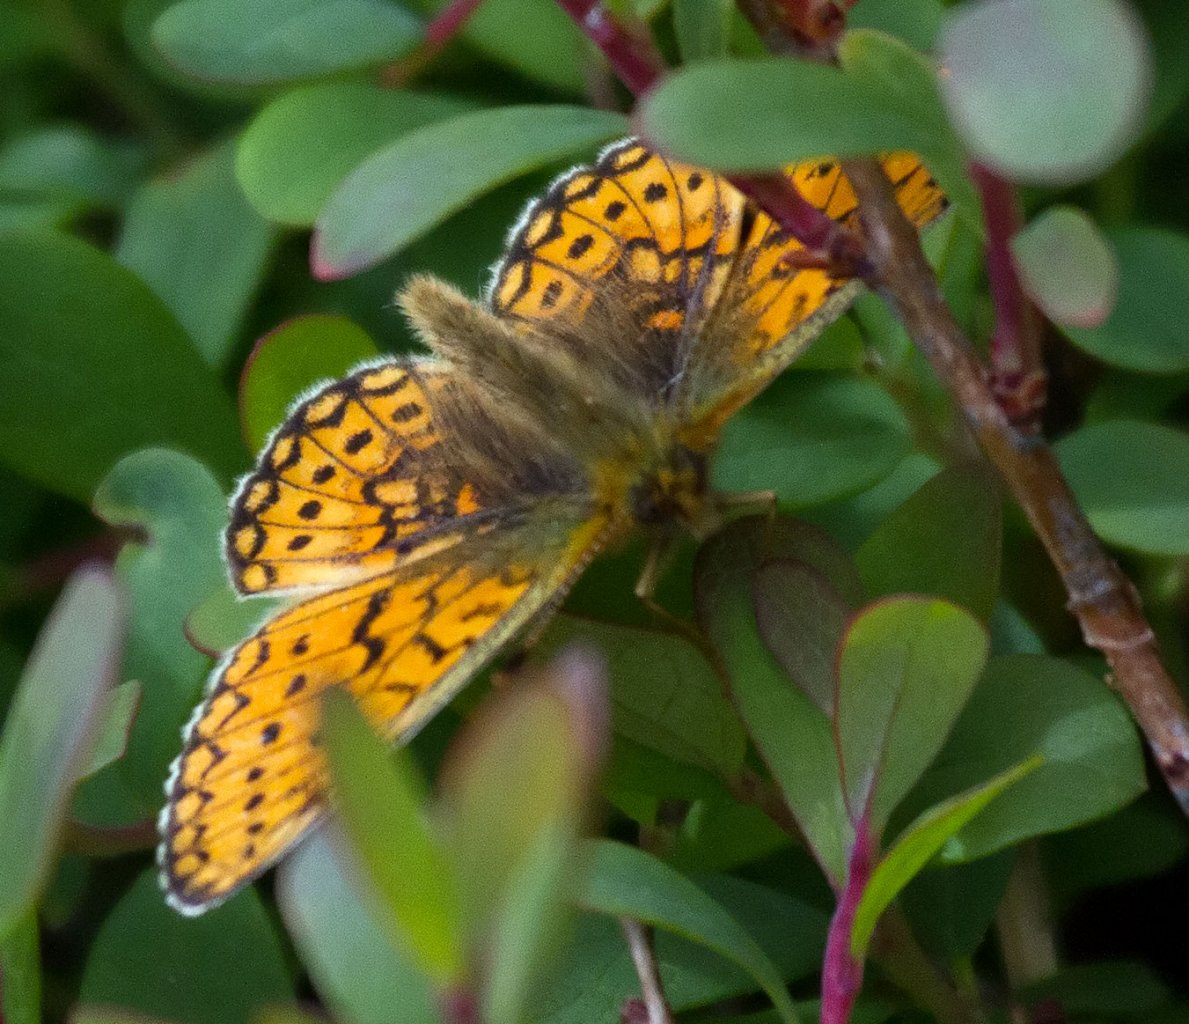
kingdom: Animalia
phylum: Arthropoda
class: Insecta
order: Lepidoptera
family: Nymphalidae
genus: Boloria
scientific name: Boloria freija
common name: Freija Fritillary
